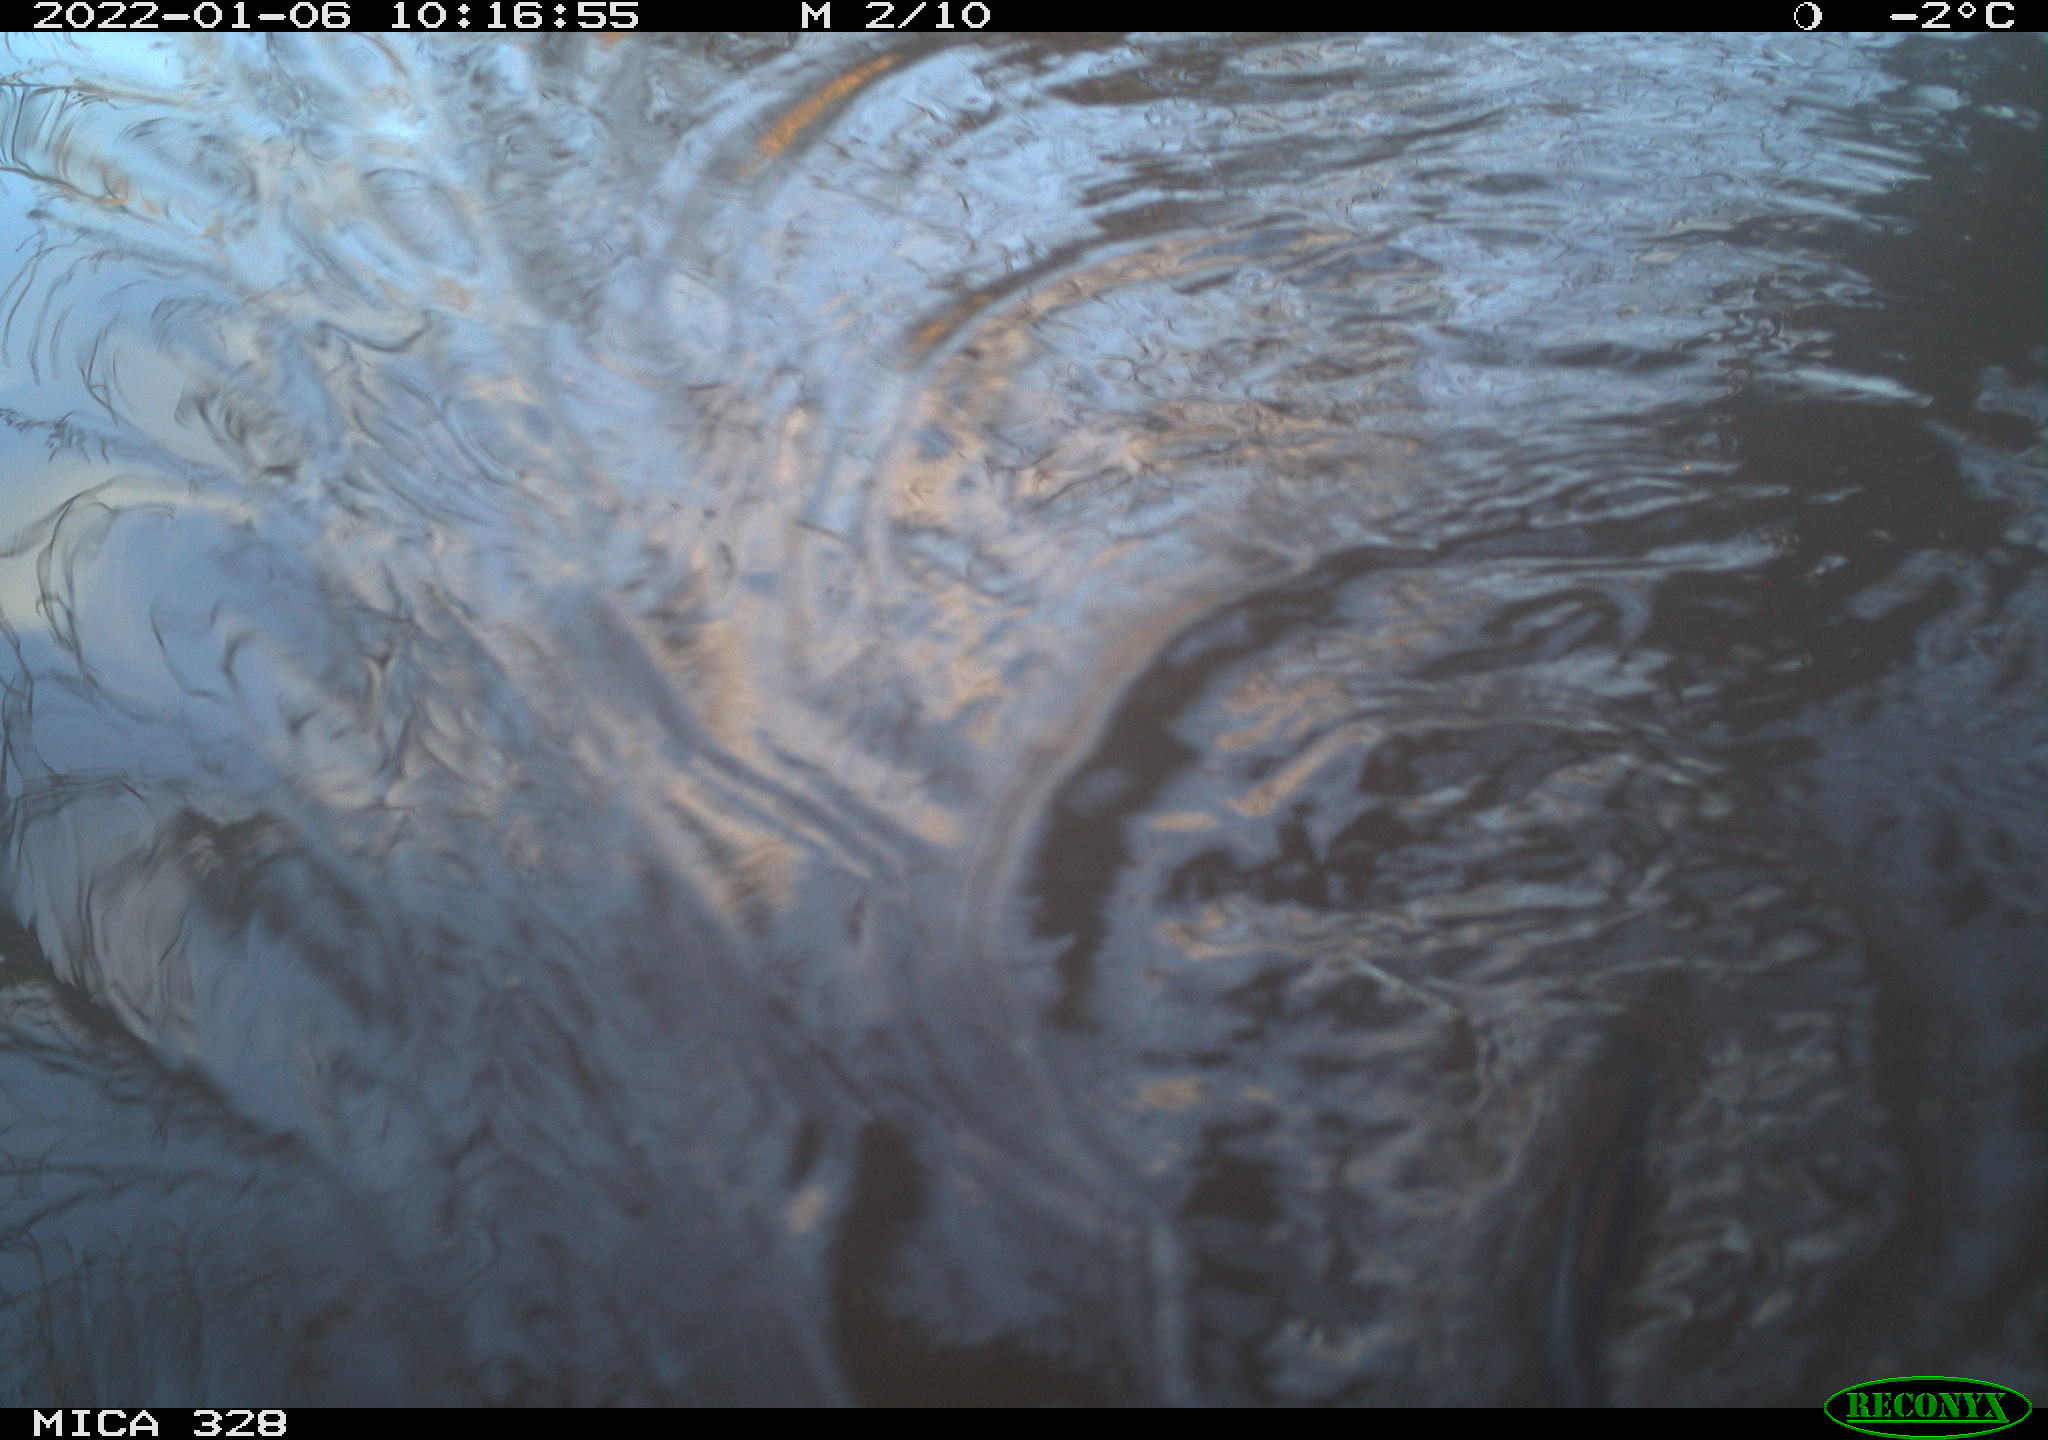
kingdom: Animalia
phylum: Chordata
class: Mammalia
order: Rodentia
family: Cricetidae
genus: Ondatra
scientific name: Ondatra zibethicus
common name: Muskrat
